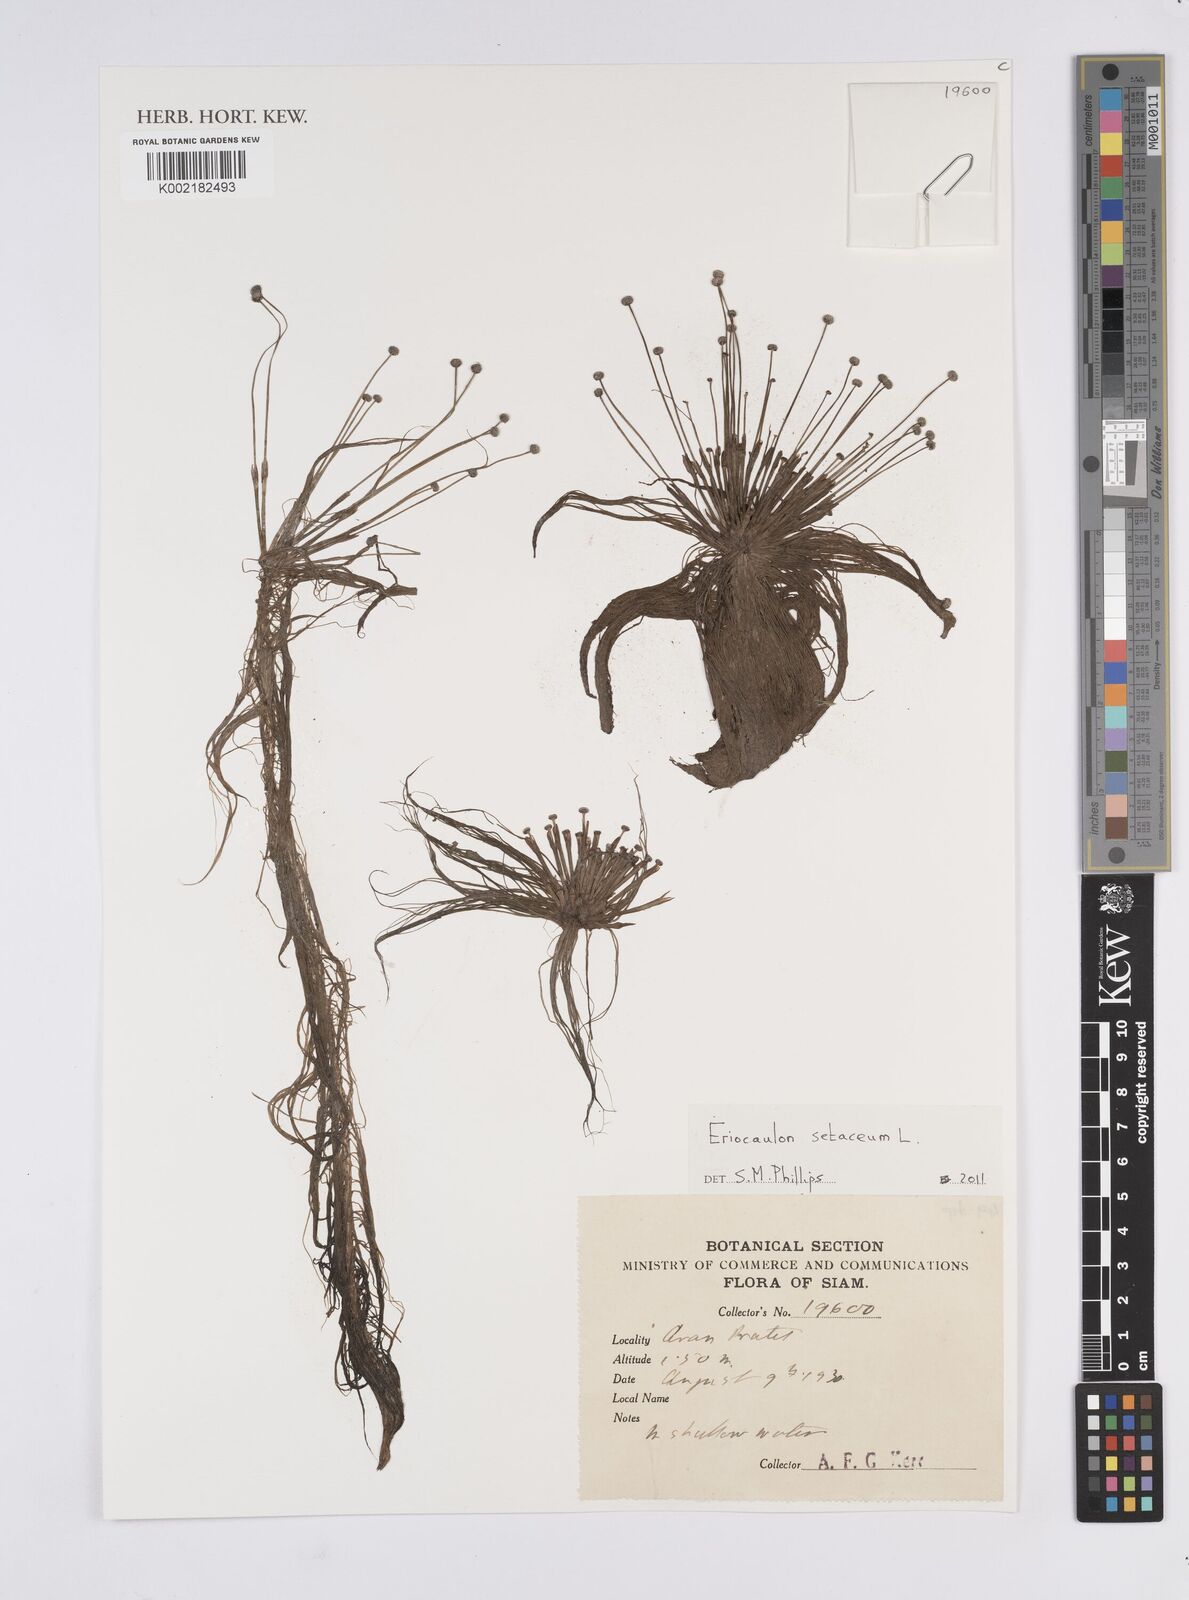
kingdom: Plantae
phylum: Tracheophyta
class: Liliopsida
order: Poales
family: Eriocaulaceae
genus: Eriocaulon
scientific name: Eriocaulon setaceum
